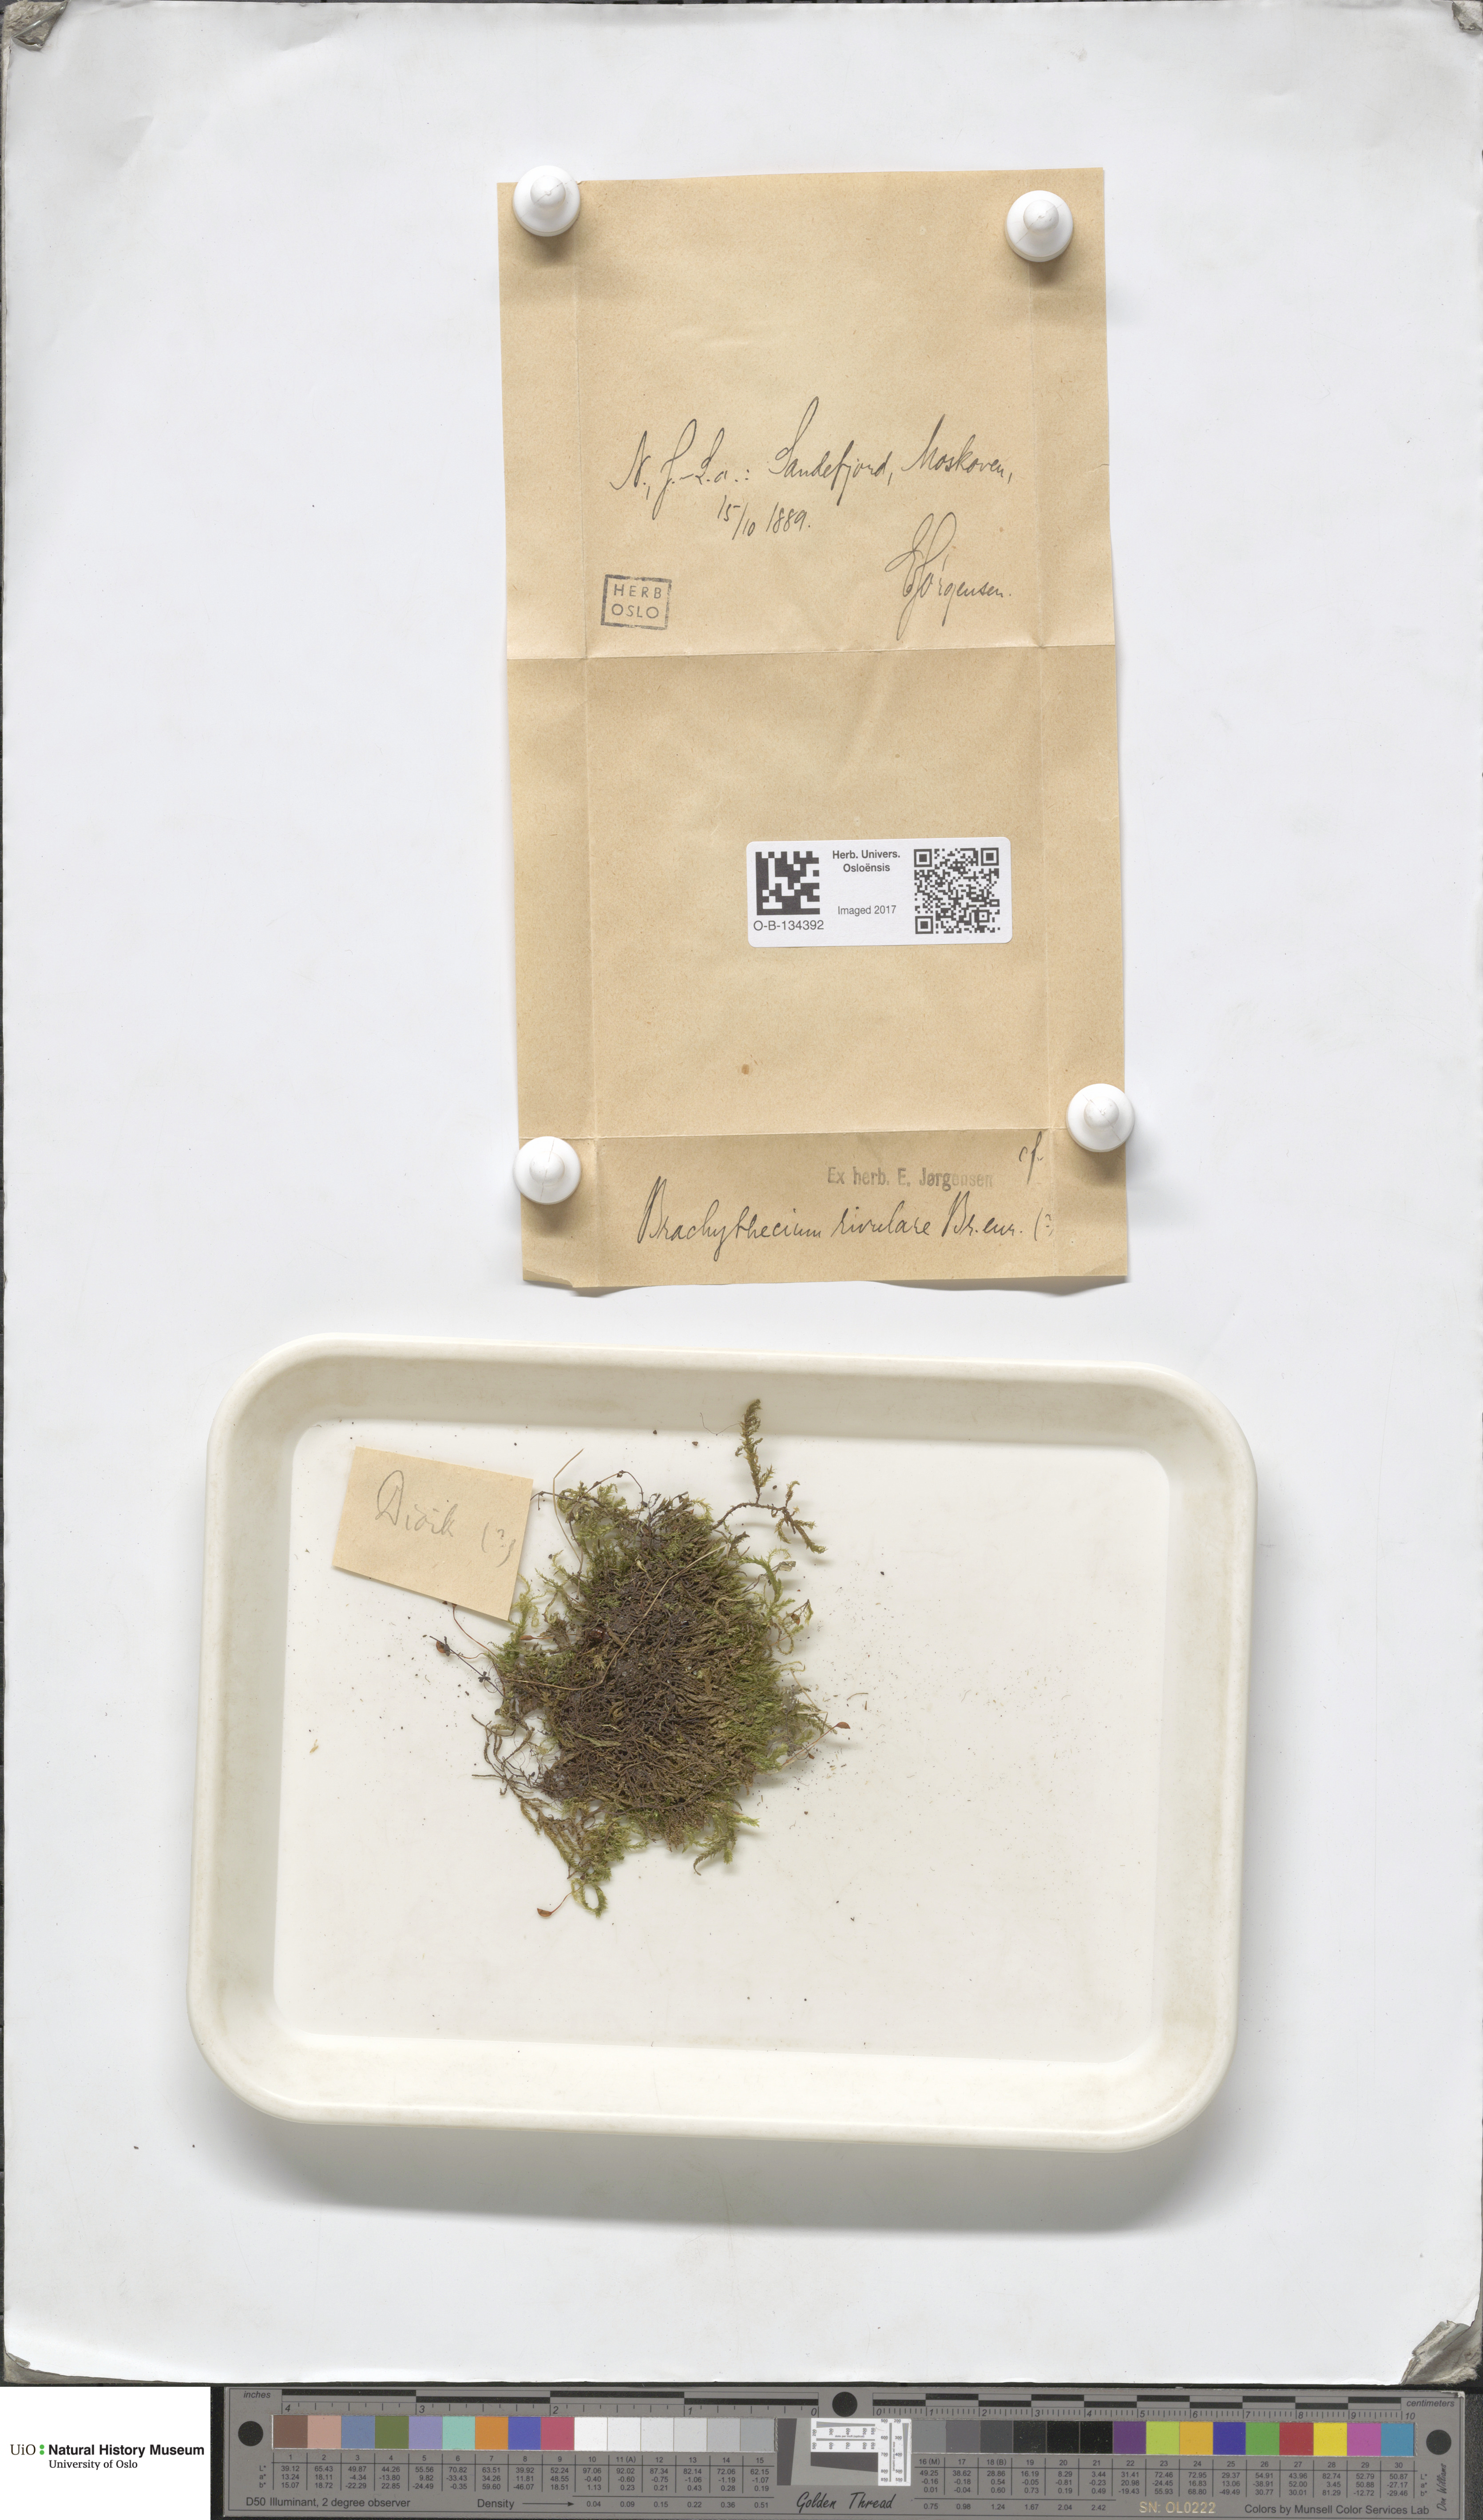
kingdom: Plantae
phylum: Bryophyta
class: Bryopsida
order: Hypnales
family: Brachytheciaceae
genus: Brachythecium
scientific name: Brachythecium rivulare
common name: River ragged moss
